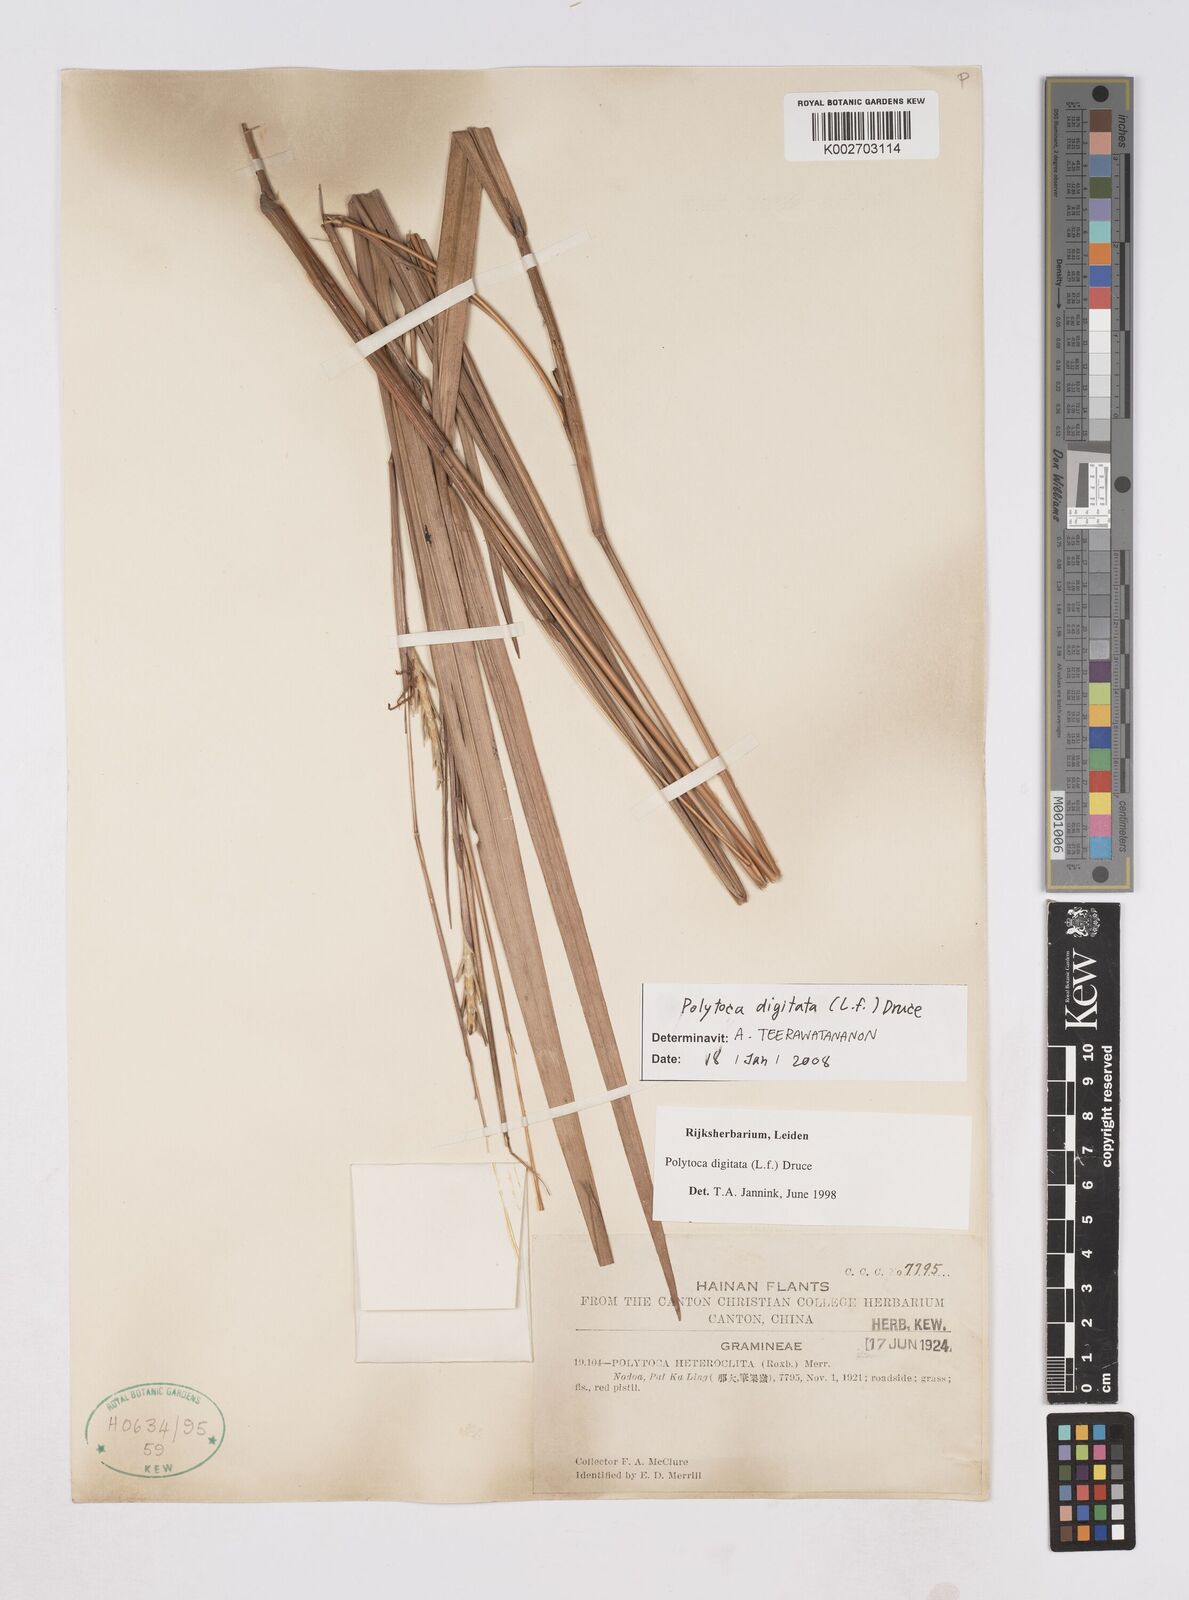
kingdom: Plantae
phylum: Tracheophyta
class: Liliopsida
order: Poales
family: Poaceae
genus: Polytoca
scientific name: Polytoca digitata
